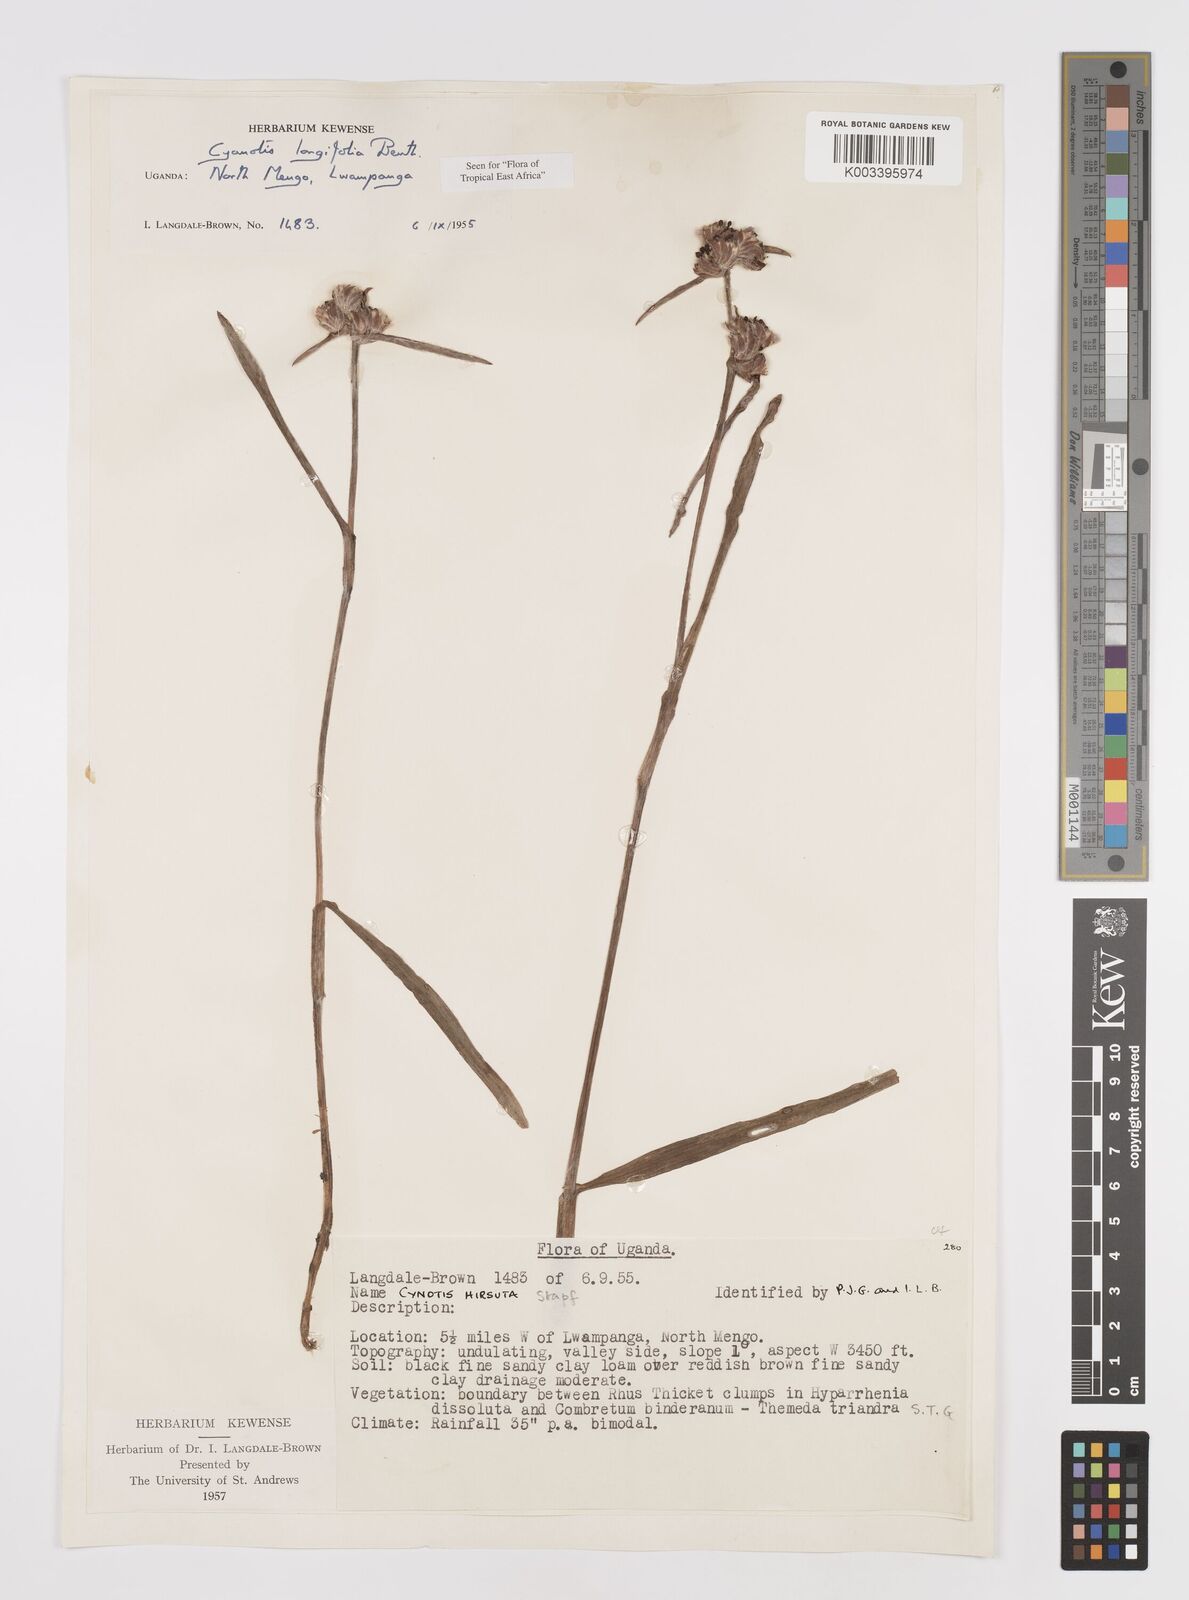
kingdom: Plantae
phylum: Tracheophyta
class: Liliopsida
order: Commelinales
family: Commelinaceae
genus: Cyanotis
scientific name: Cyanotis longifolia
